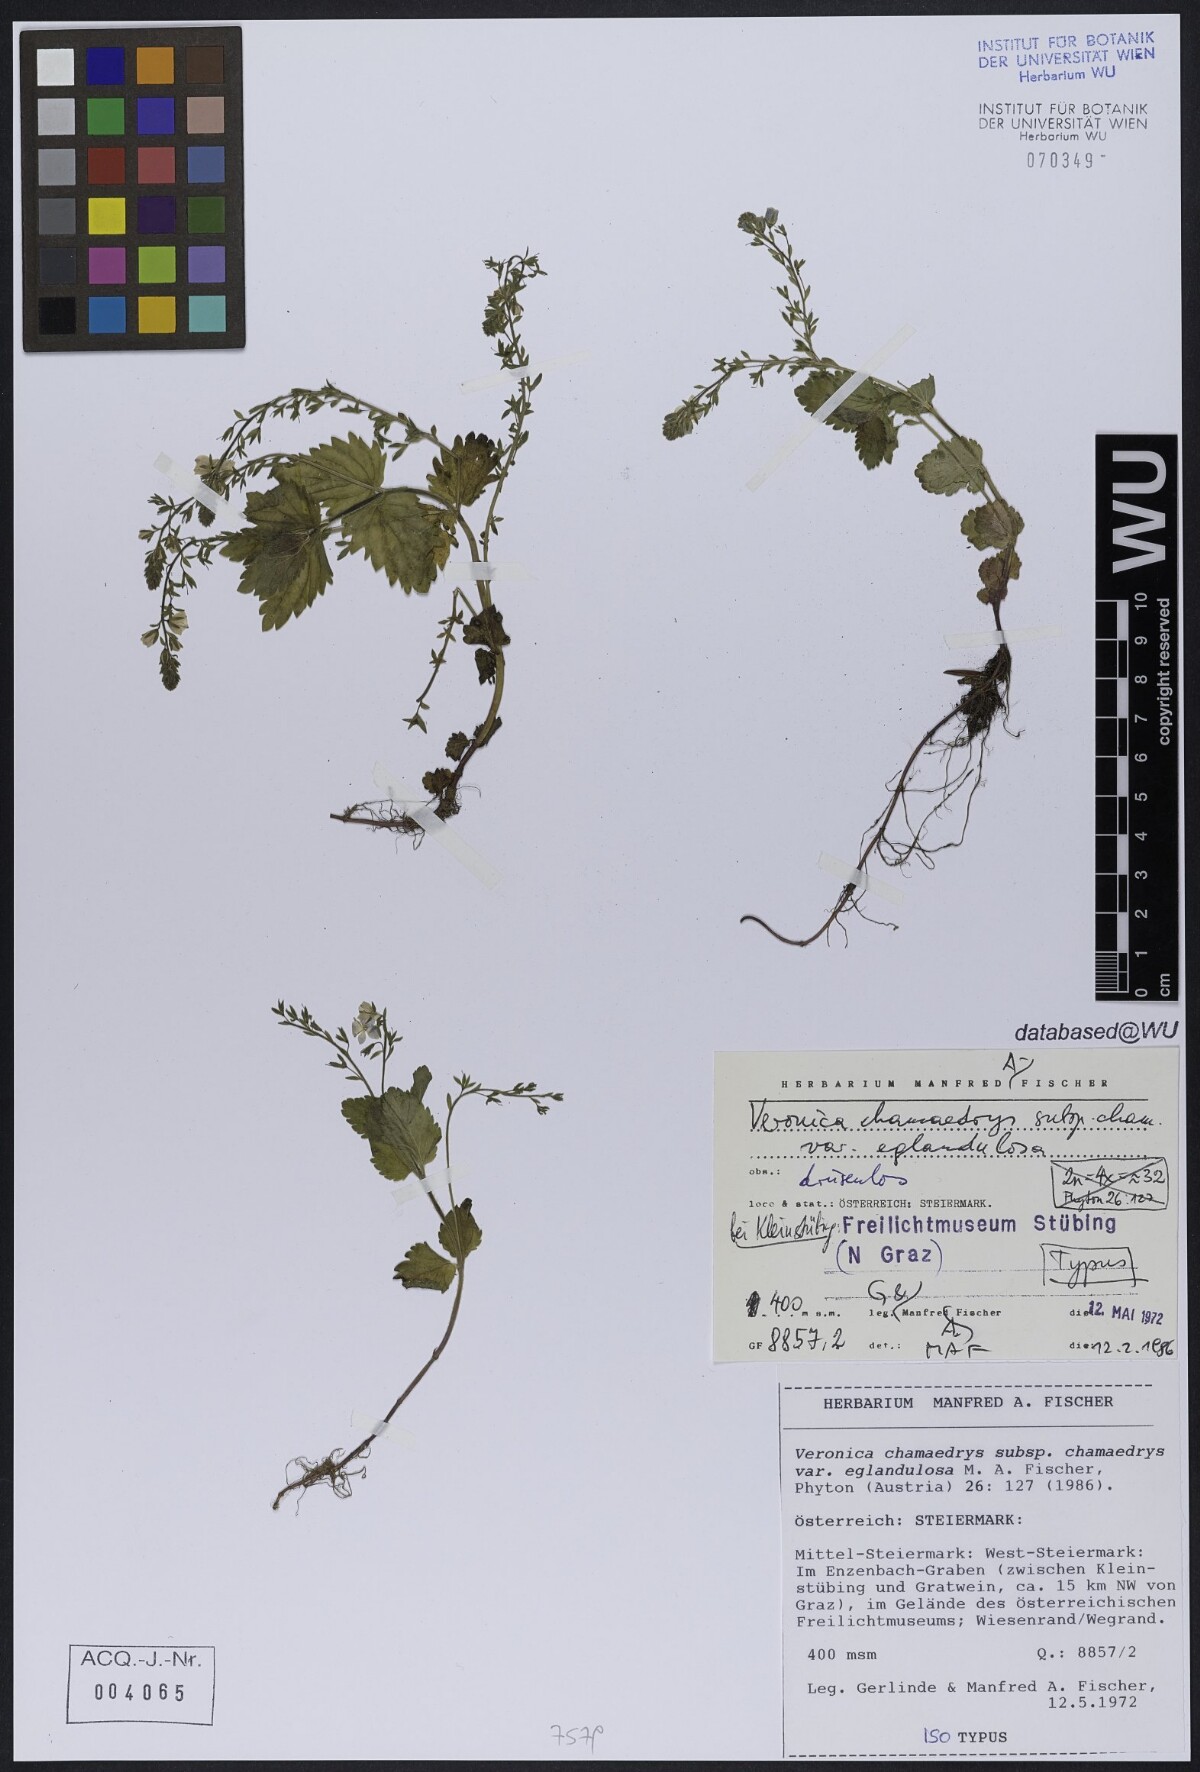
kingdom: Plantae
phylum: Tracheophyta
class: Magnoliopsida
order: Lamiales
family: Plantaginaceae
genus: Veronica
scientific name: Veronica chamaedrys
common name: Germander speedwell
